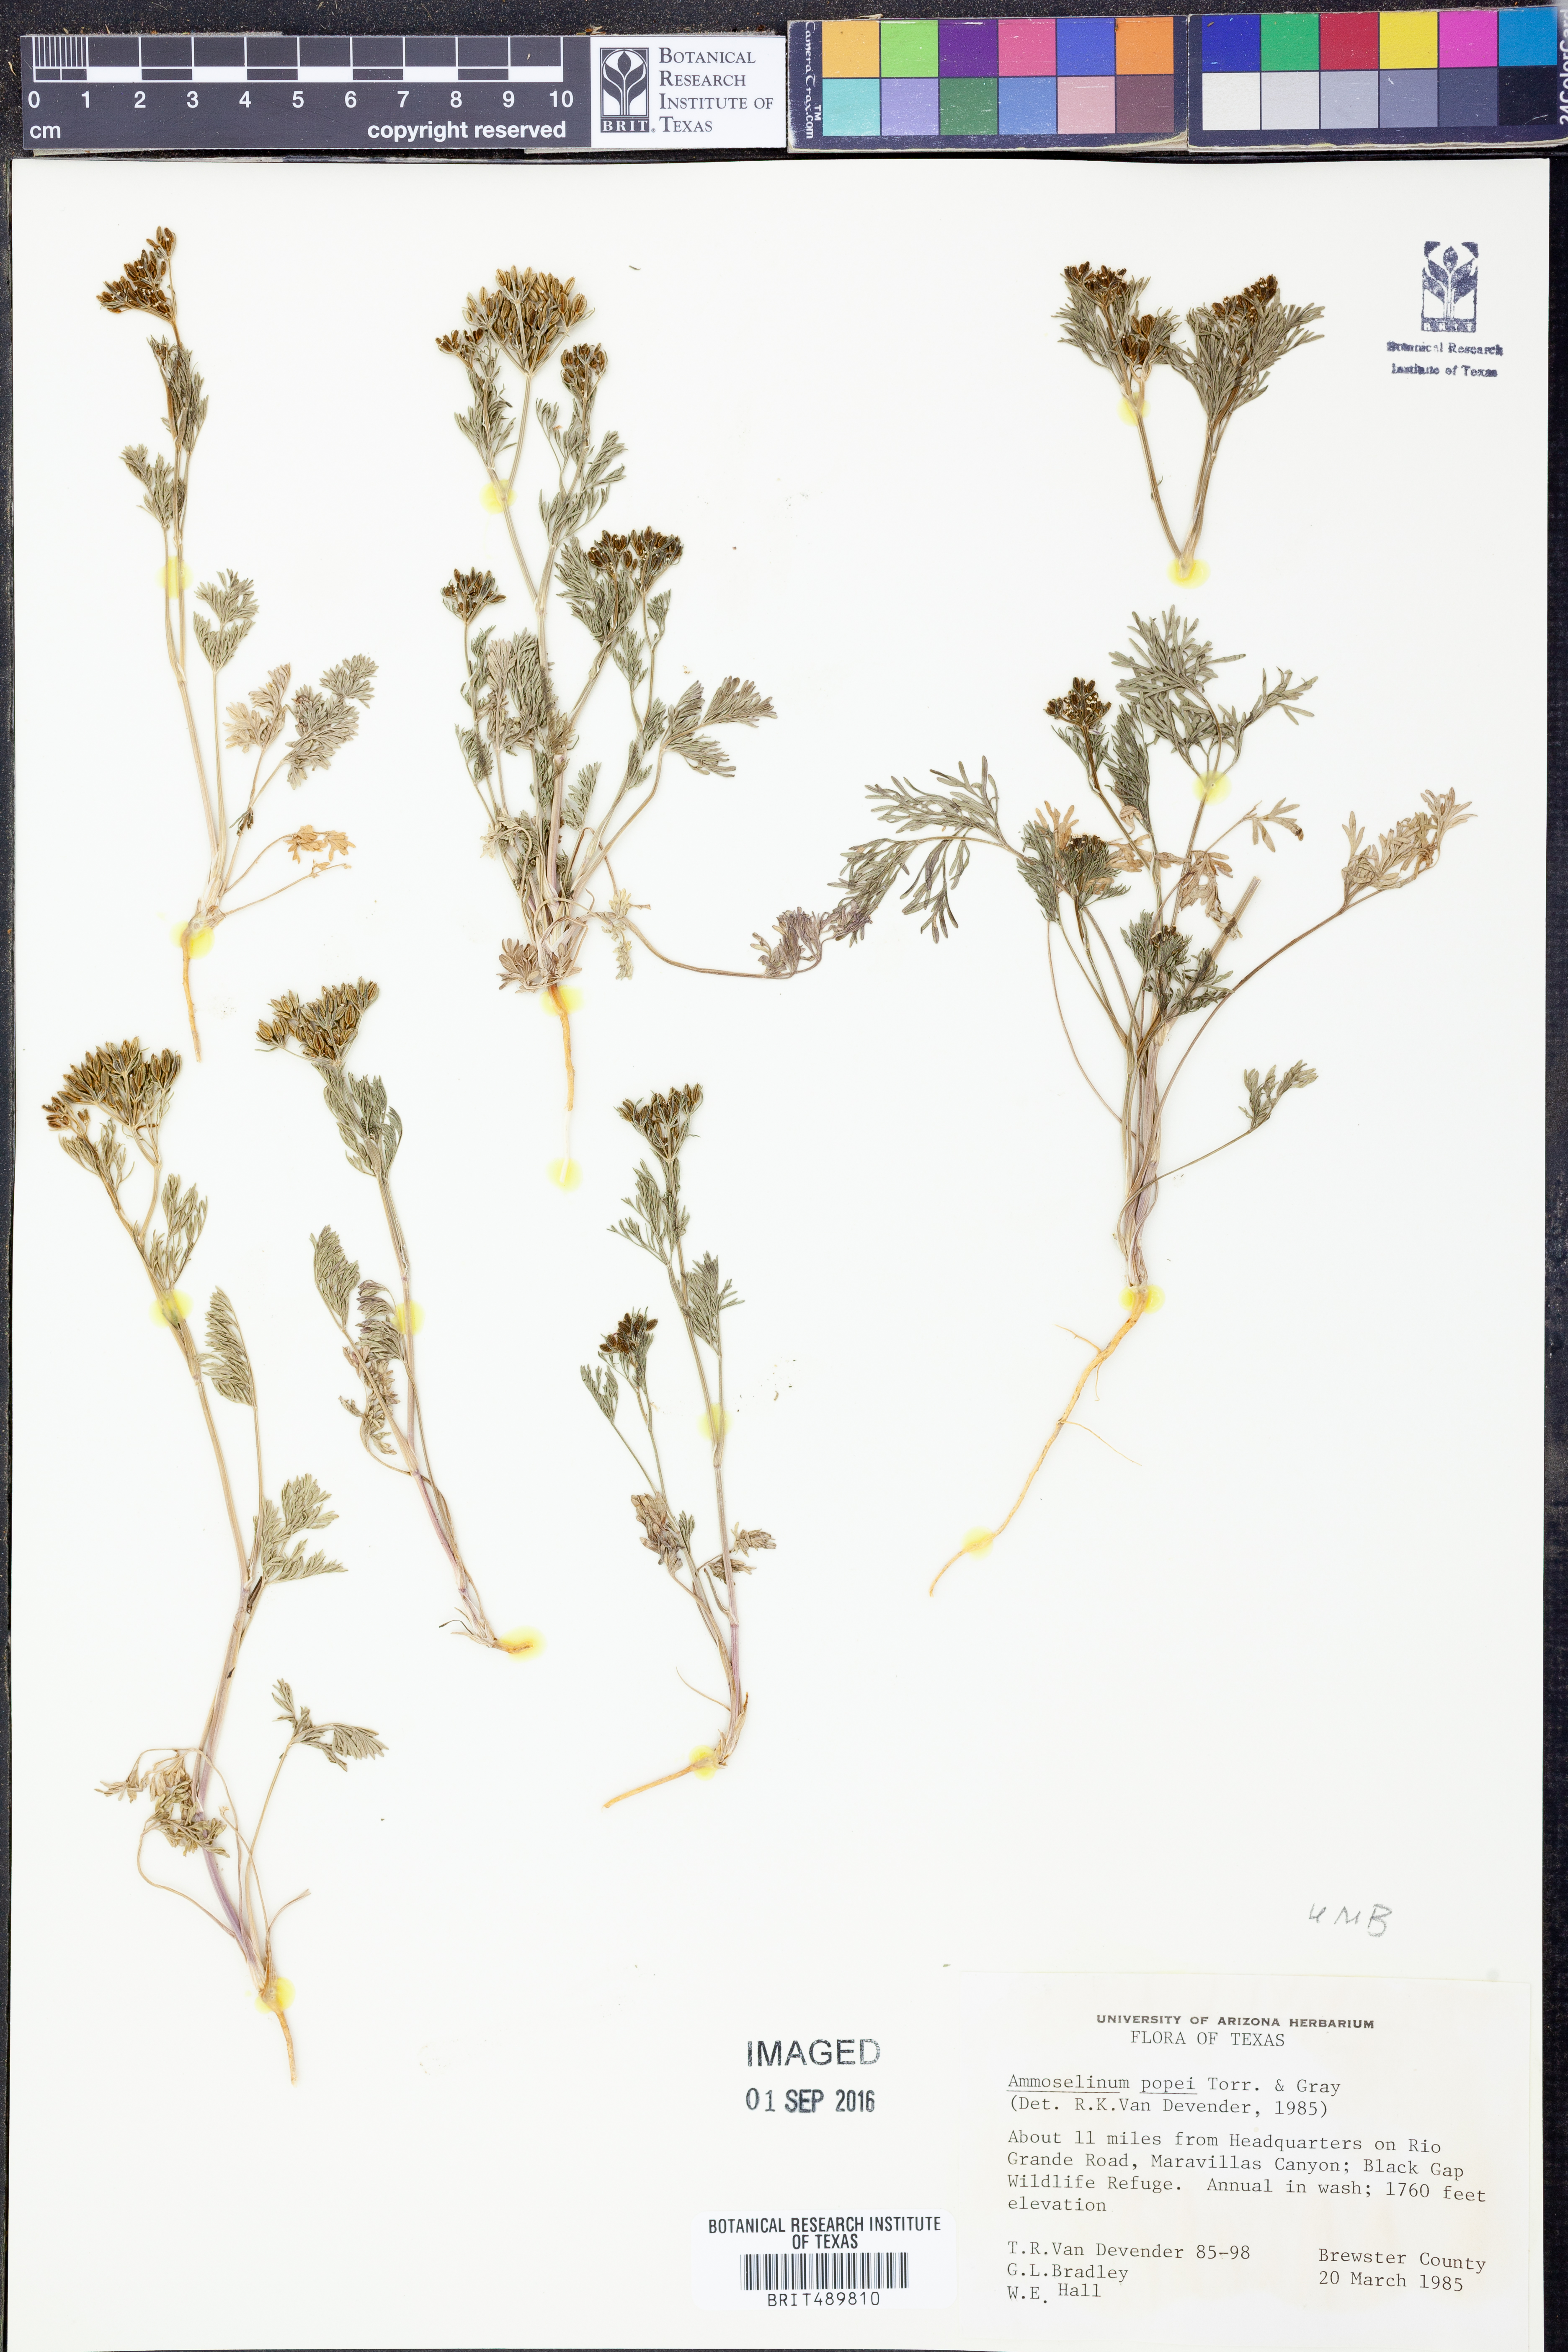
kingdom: Plantae
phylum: Tracheophyta
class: Magnoliopsida
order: Apiales
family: Apiaceae
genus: Ammoselinum
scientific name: Ammoselinum popei
